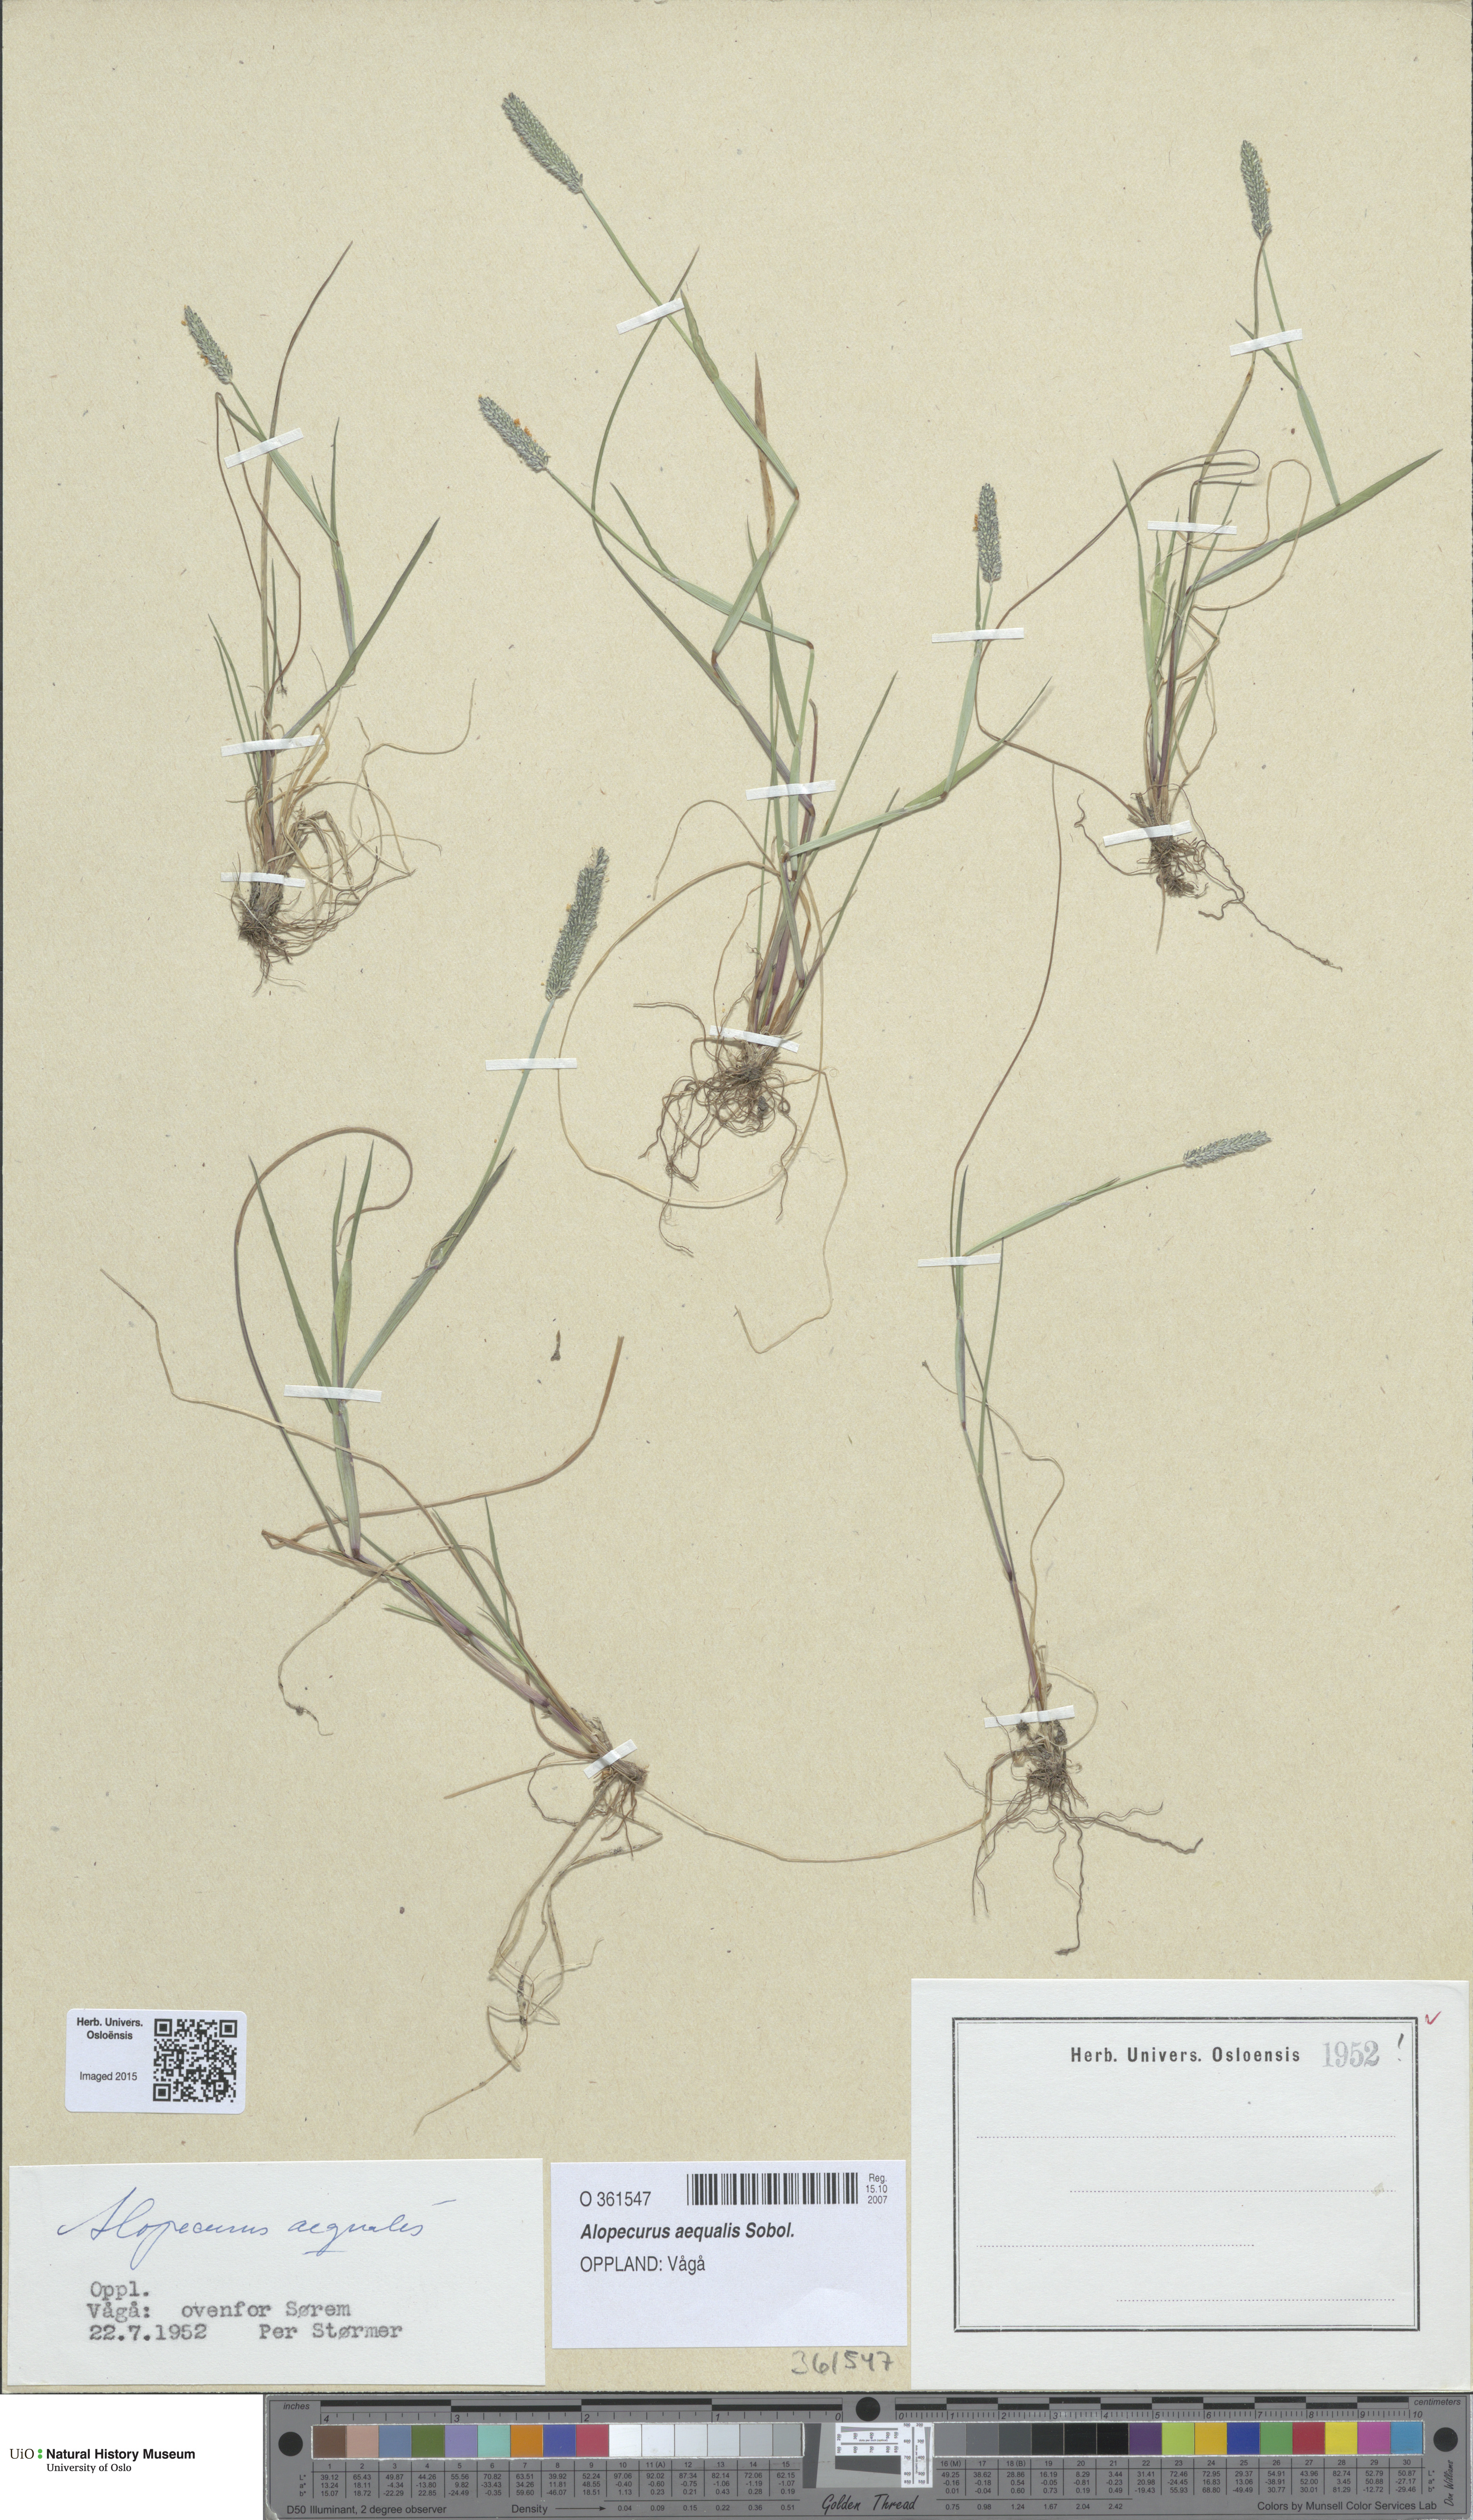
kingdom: Plantae
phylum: Tracheophyta
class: Liliopsida
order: Poales
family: Poaceae
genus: Alopecurus
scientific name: Alopecurus aequalis
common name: Orange foxtail
